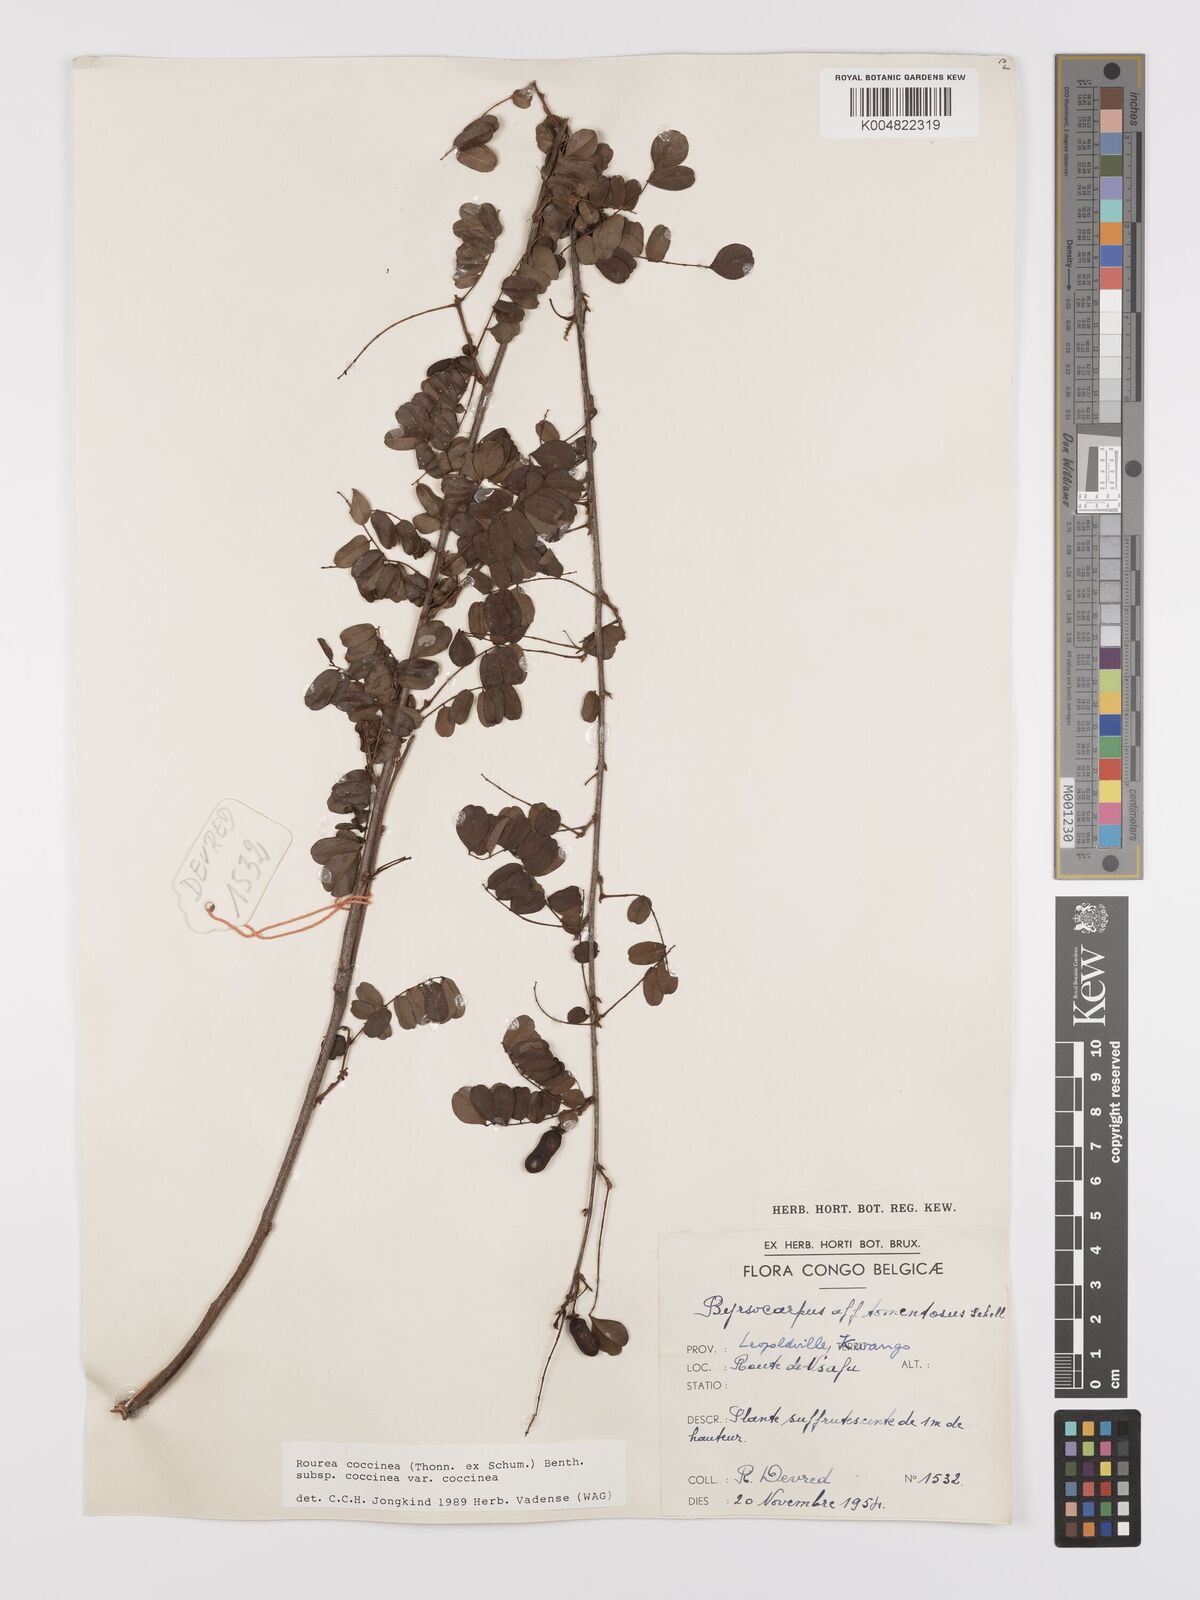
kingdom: Plantae
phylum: Tracheophyta
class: Magnoliopsida
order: Oxalidales
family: Connaraceae
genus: Rourea
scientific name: Rourea orientalis
